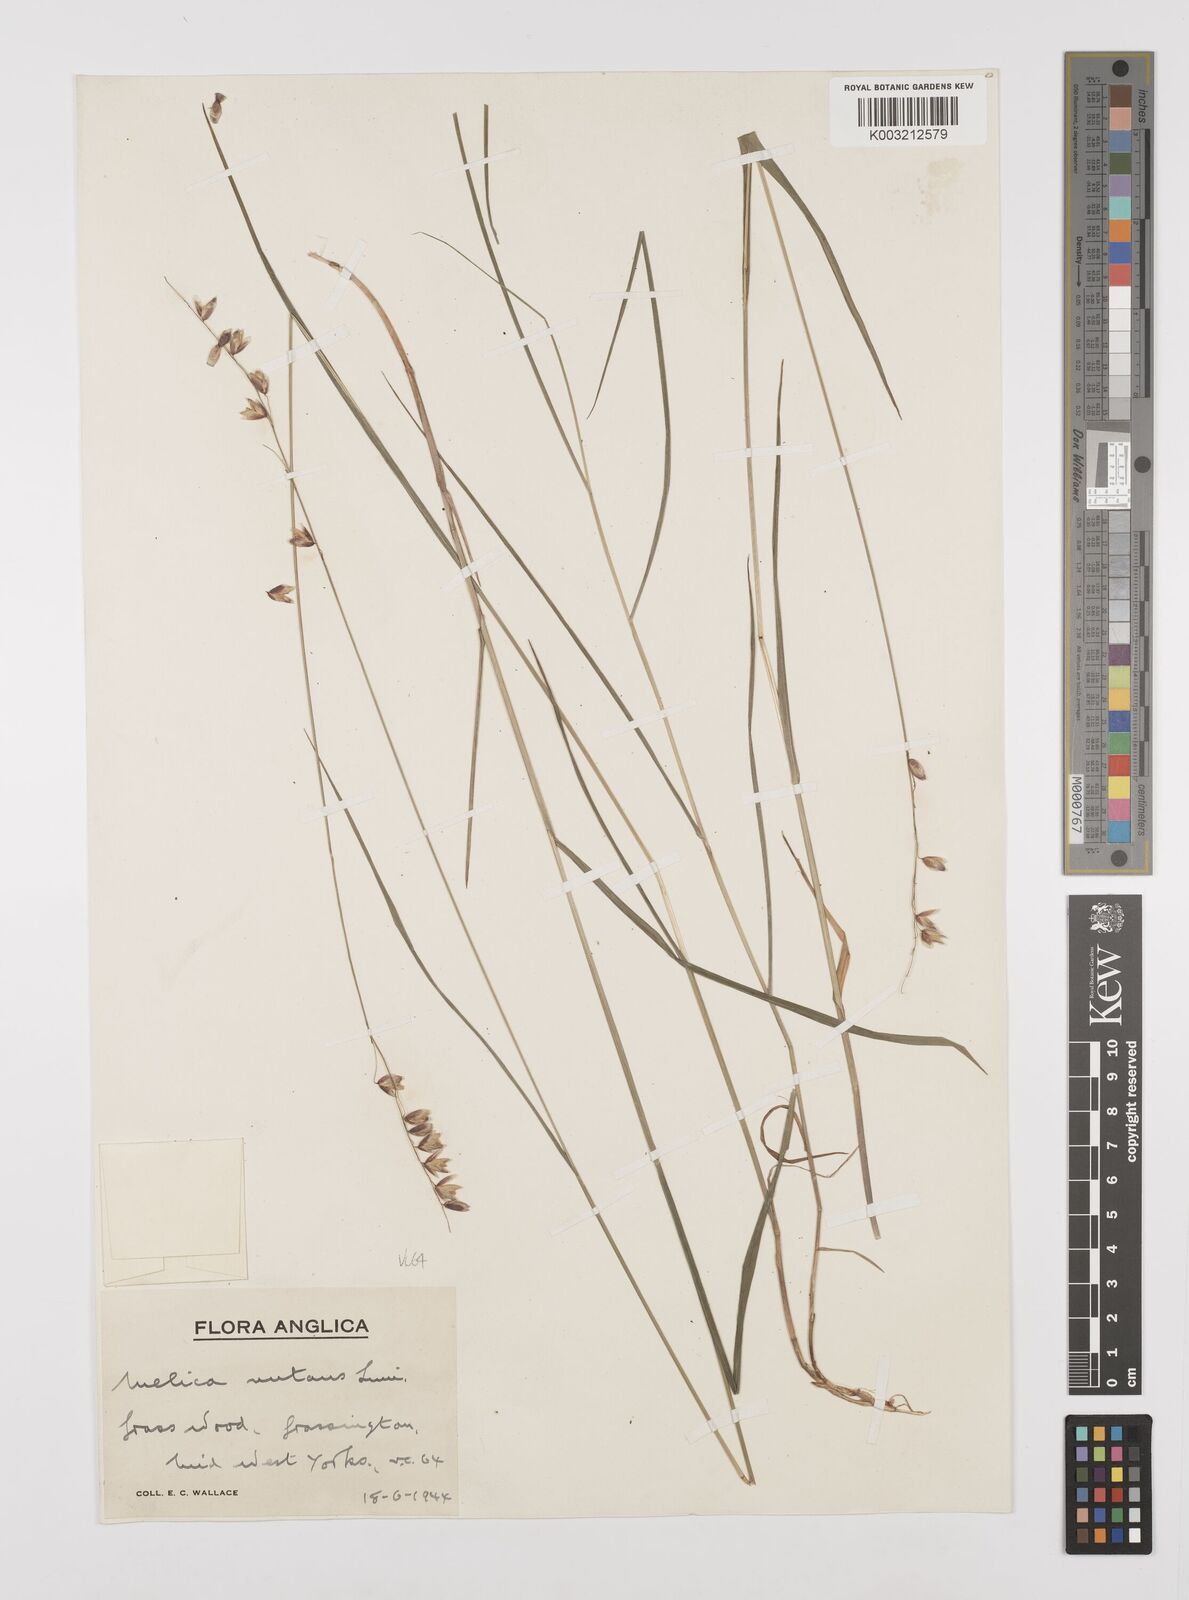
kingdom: Plantae
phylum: Tracheophyta
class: Liliopsida
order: Poales
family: Poaceae
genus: Melica
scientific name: Melica
